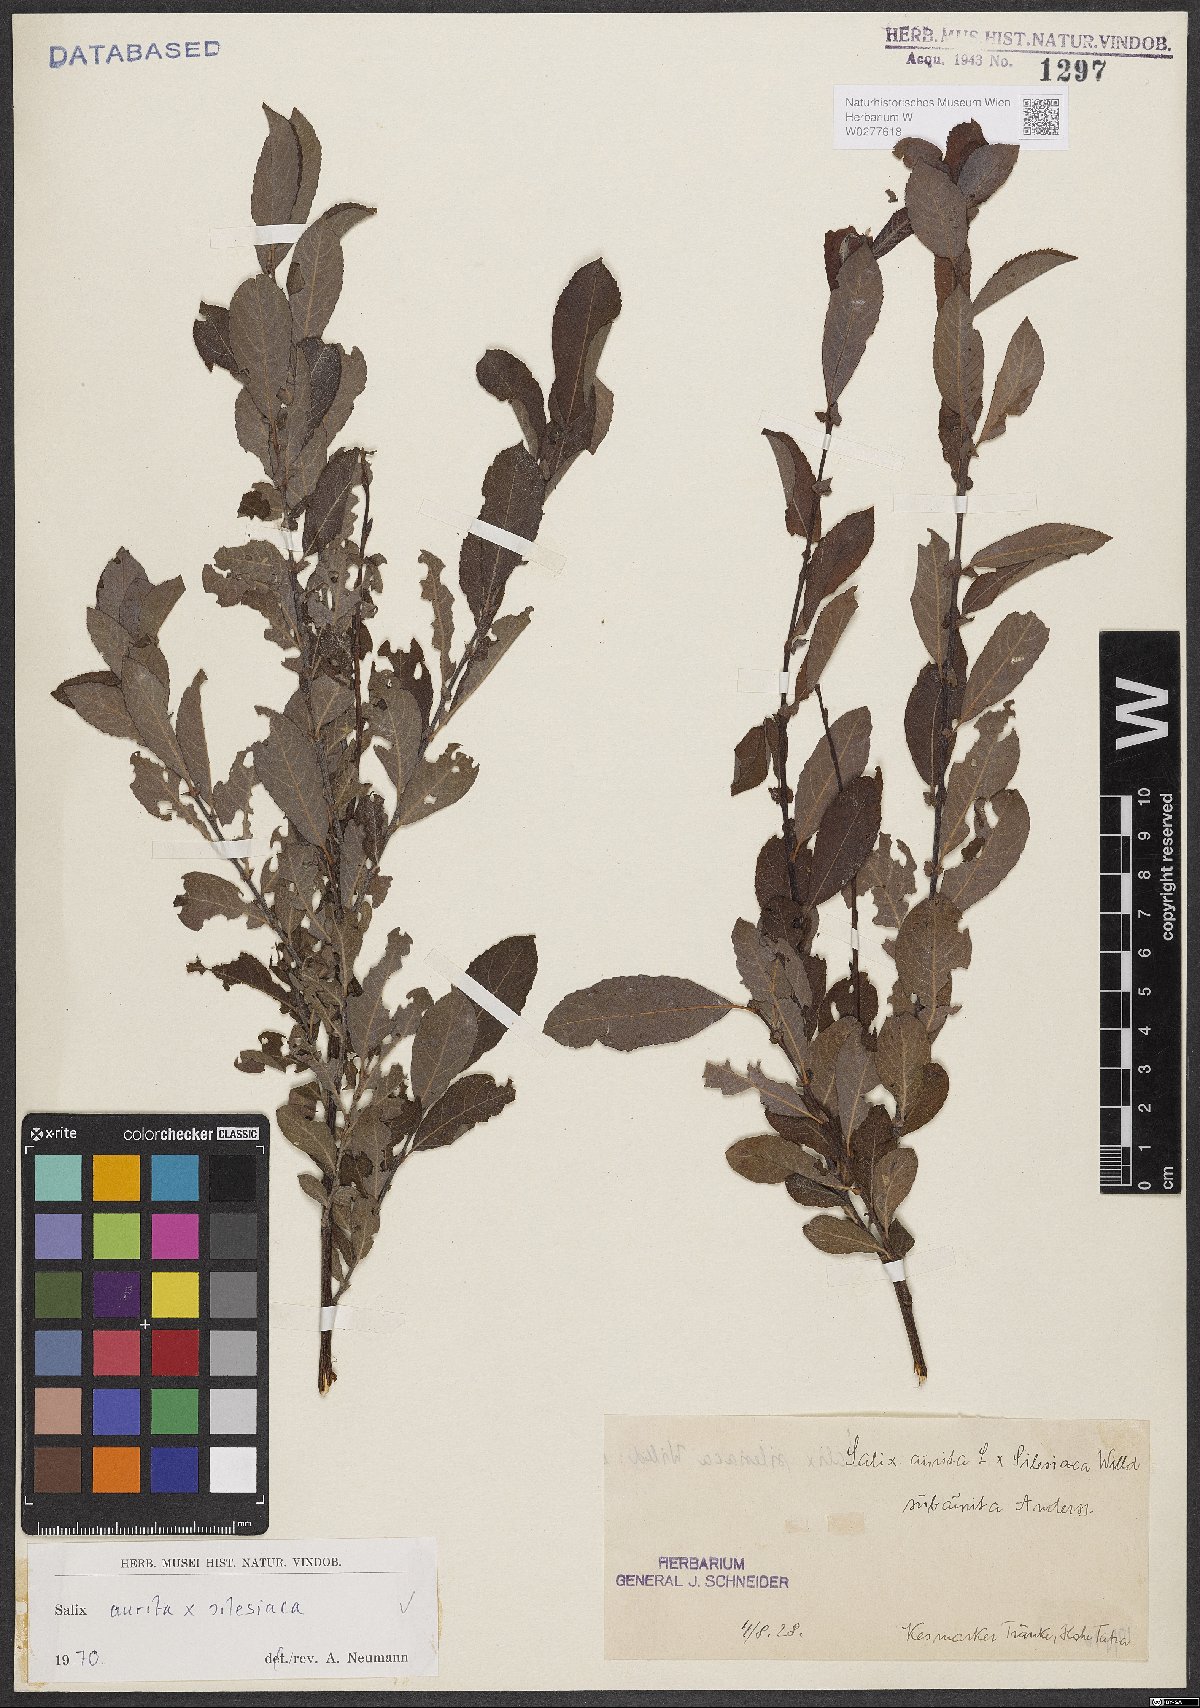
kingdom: Plantae
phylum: Tracheophyta
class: Magnoliopsida
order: Malpighiales
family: Salicaceae
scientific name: Salicaceae
